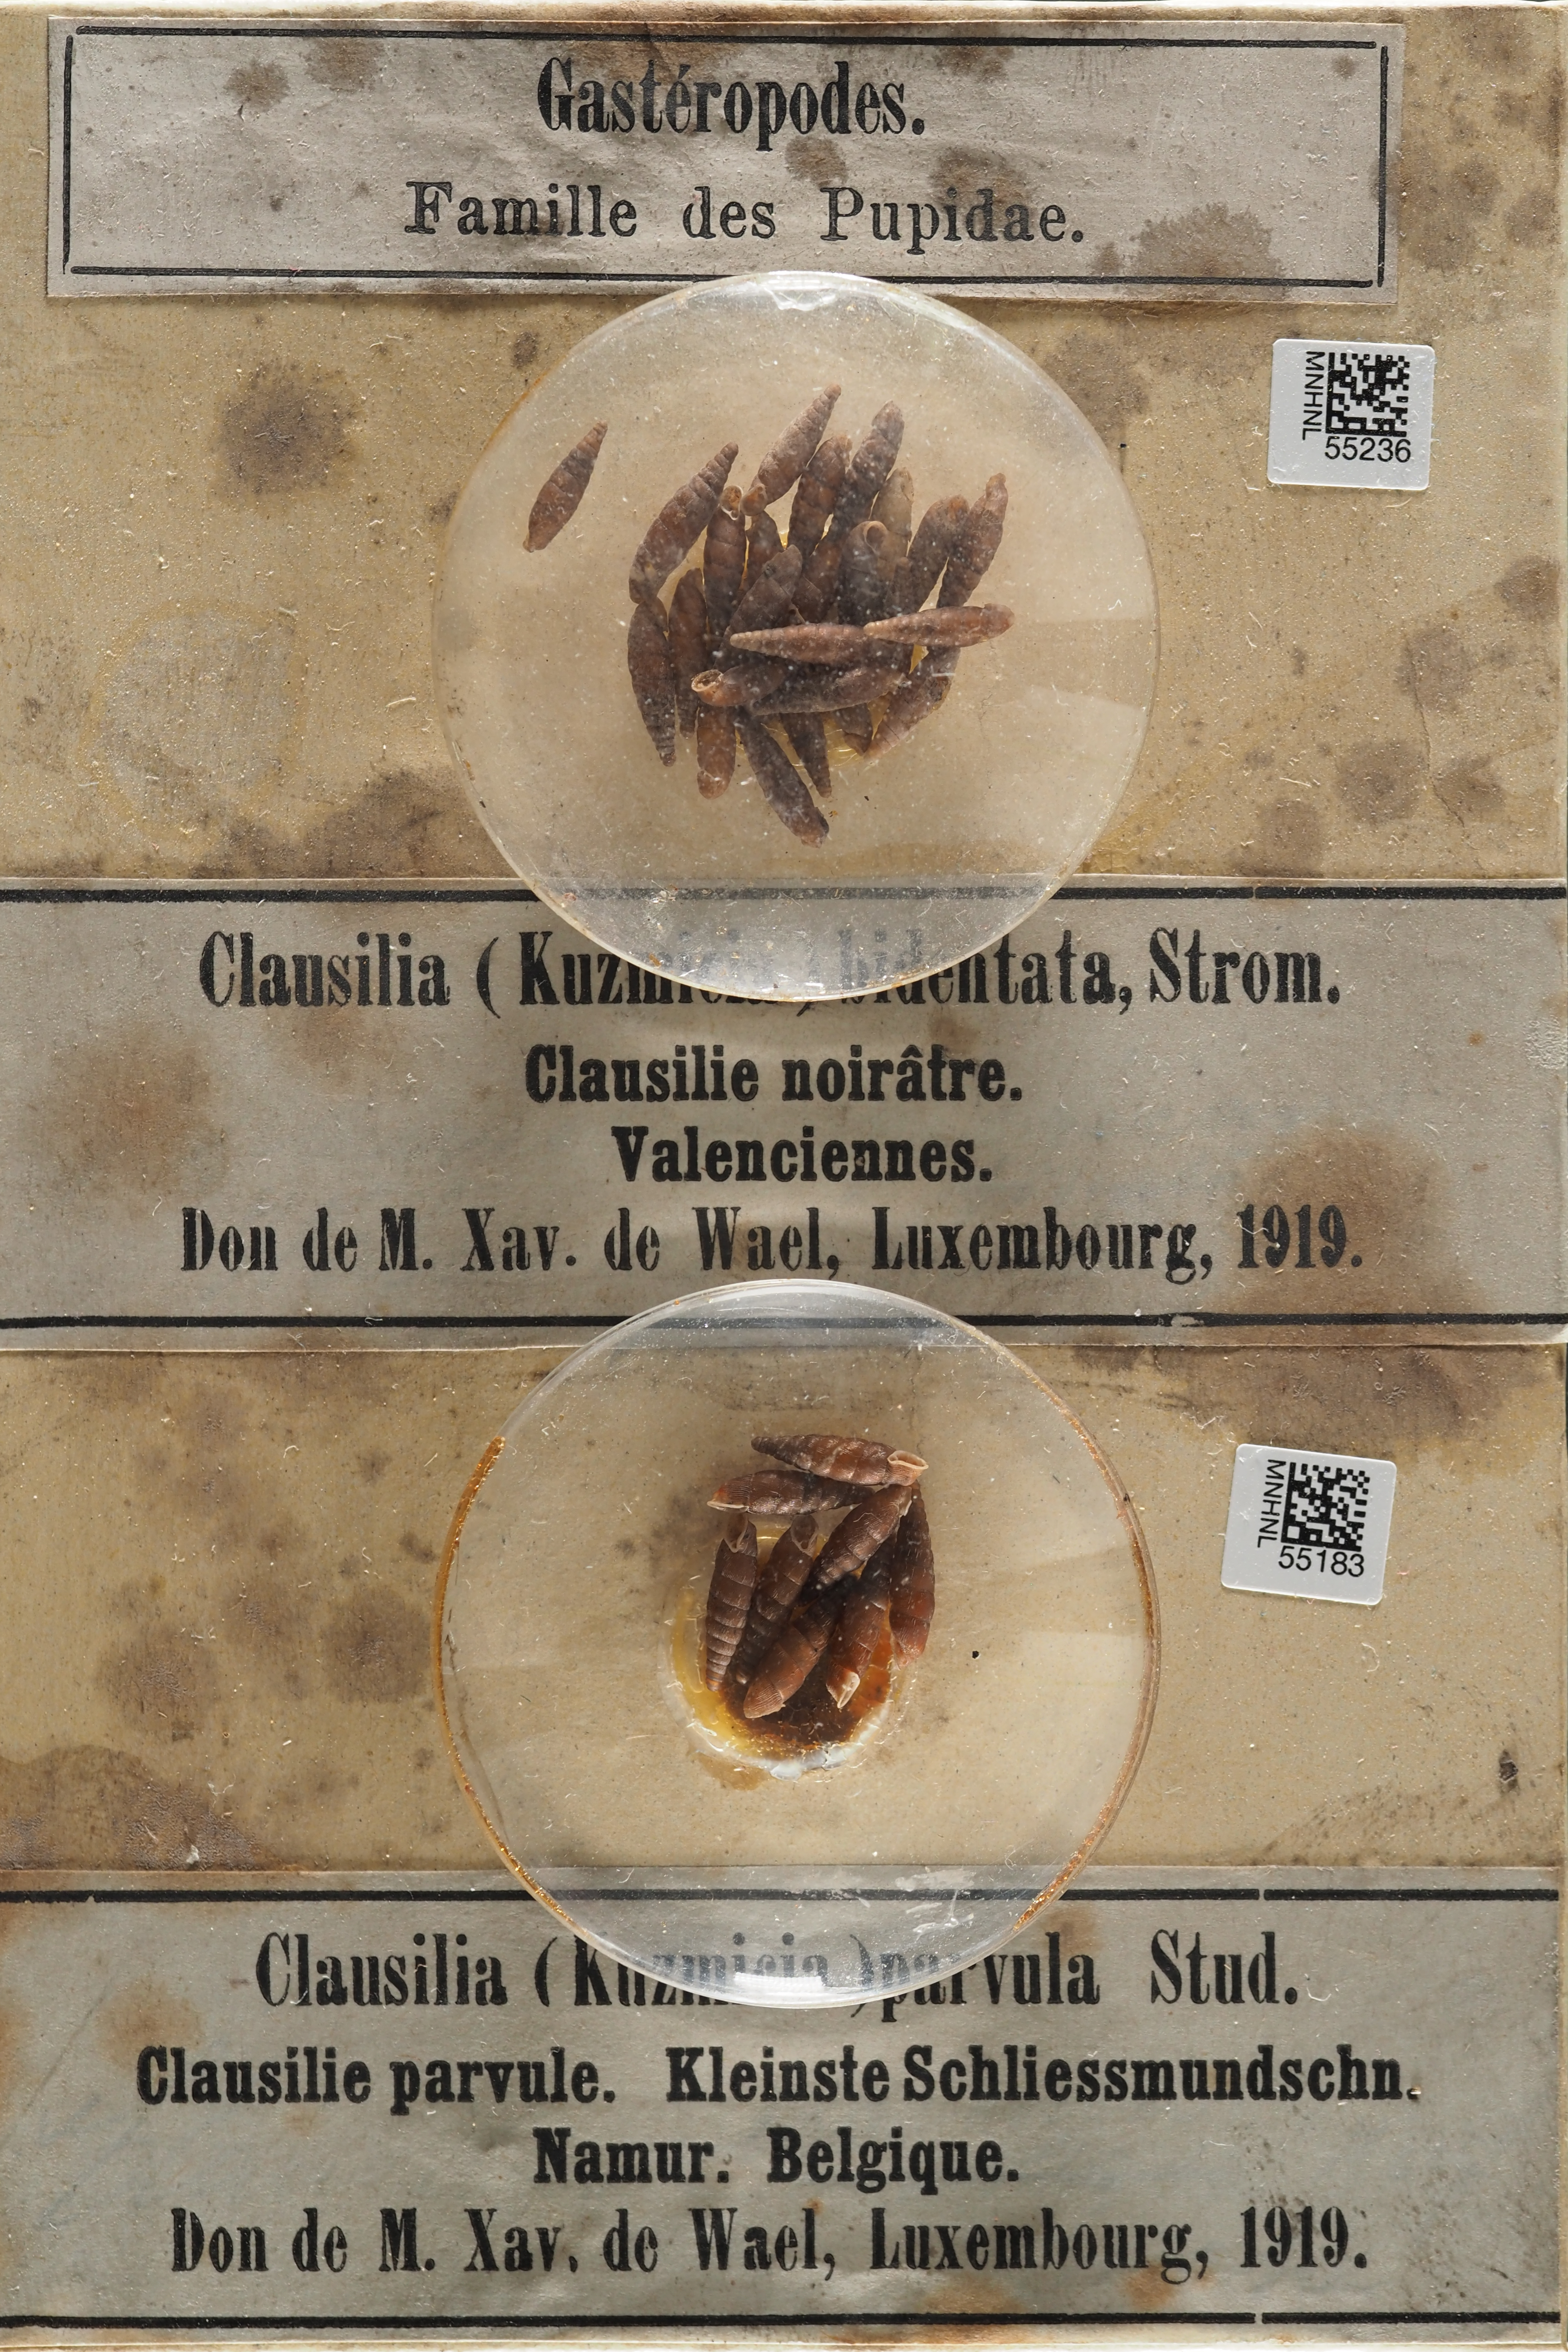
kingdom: Animalia
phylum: Mollusca
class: Gastropoda
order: Stylommatophora
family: Clausiliidae
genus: Clausilia
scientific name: Clausilia rugosa
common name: Tiny door snail
